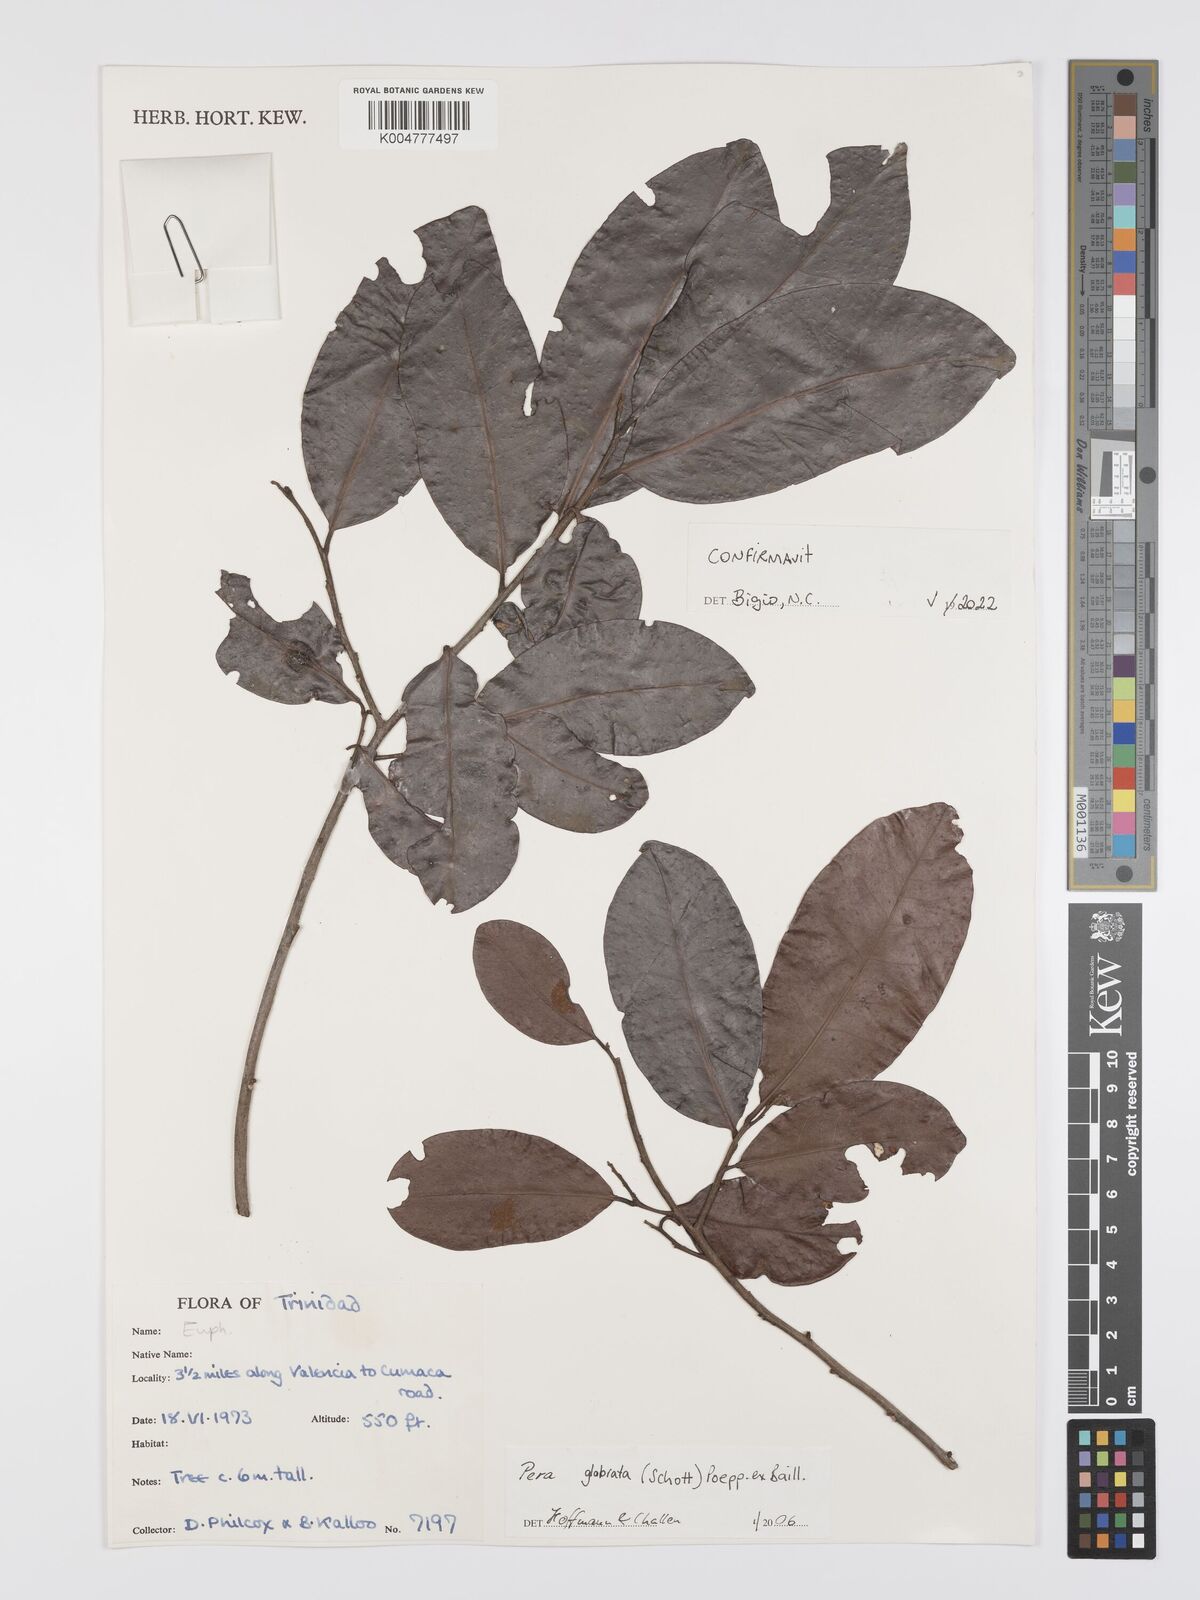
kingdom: Plantae
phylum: Tracheophyta
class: Magnoliopsida
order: Malpighiales
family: Peraceae
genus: Pera
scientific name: Pera glabrata
